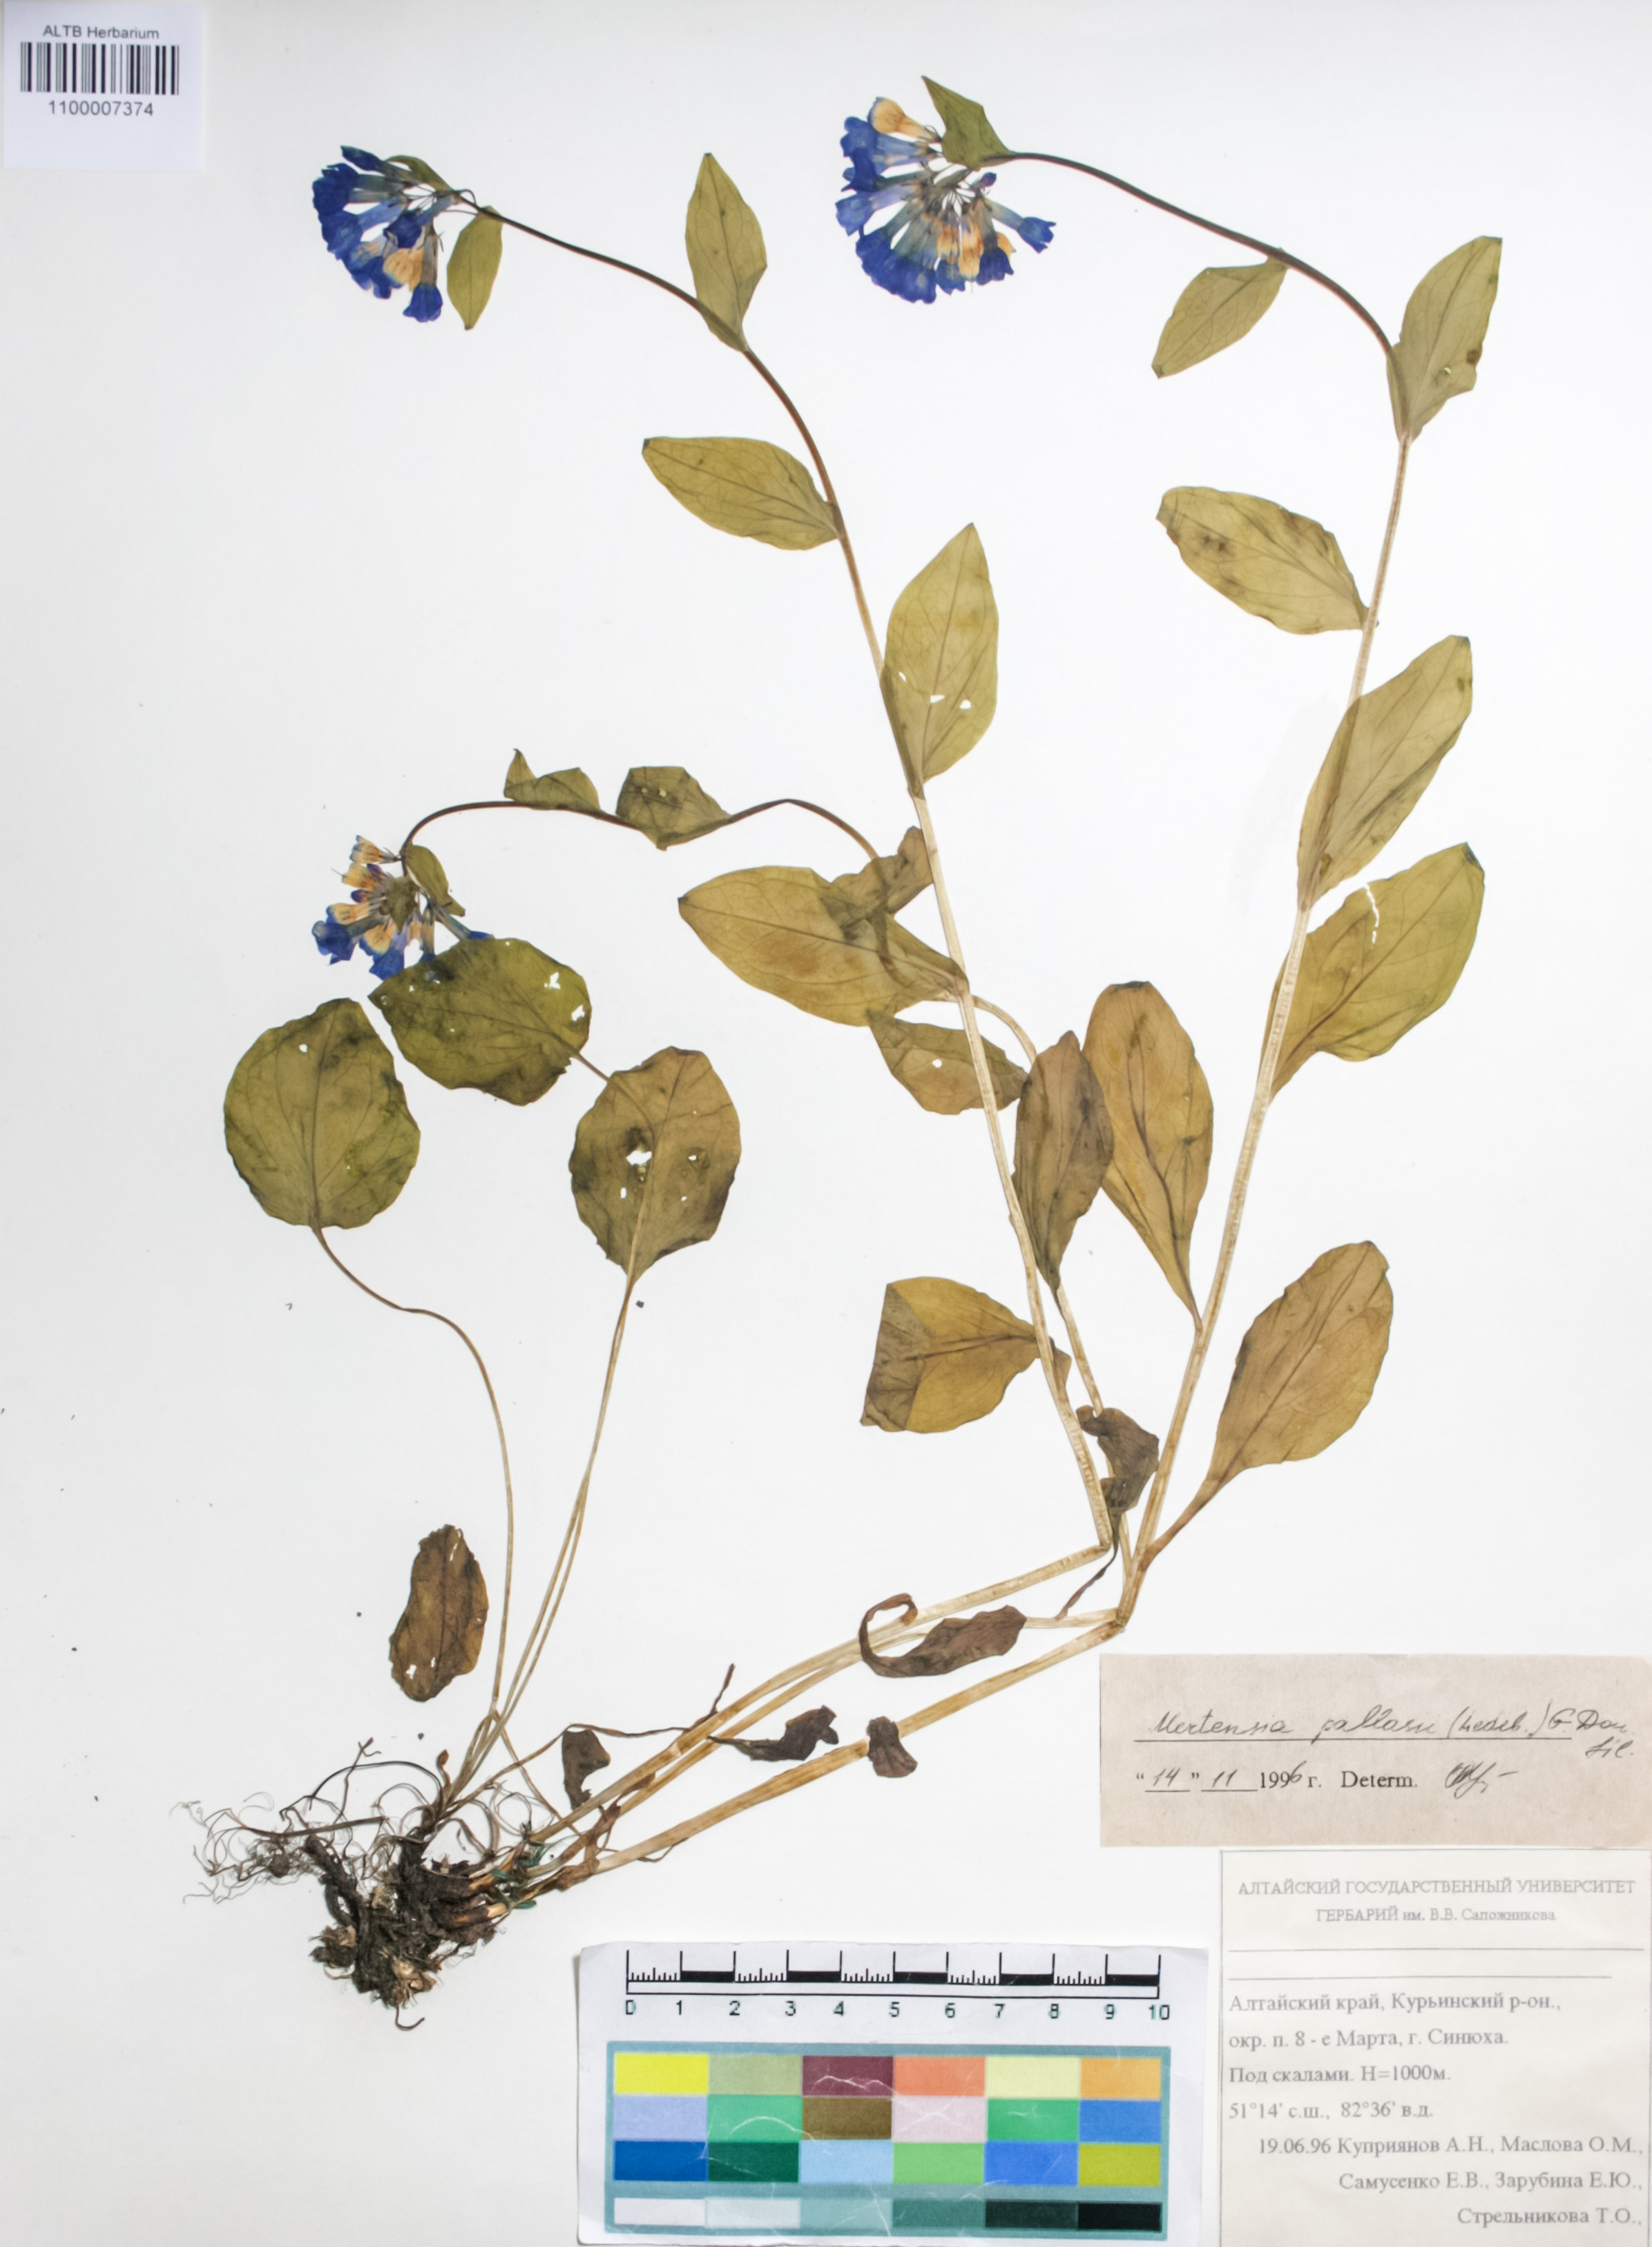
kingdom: Plantae
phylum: Tracheophyta
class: Magnoliopsida
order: Boraginales
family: Boraginaceae
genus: Mertensia
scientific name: Mertensia pallasii
